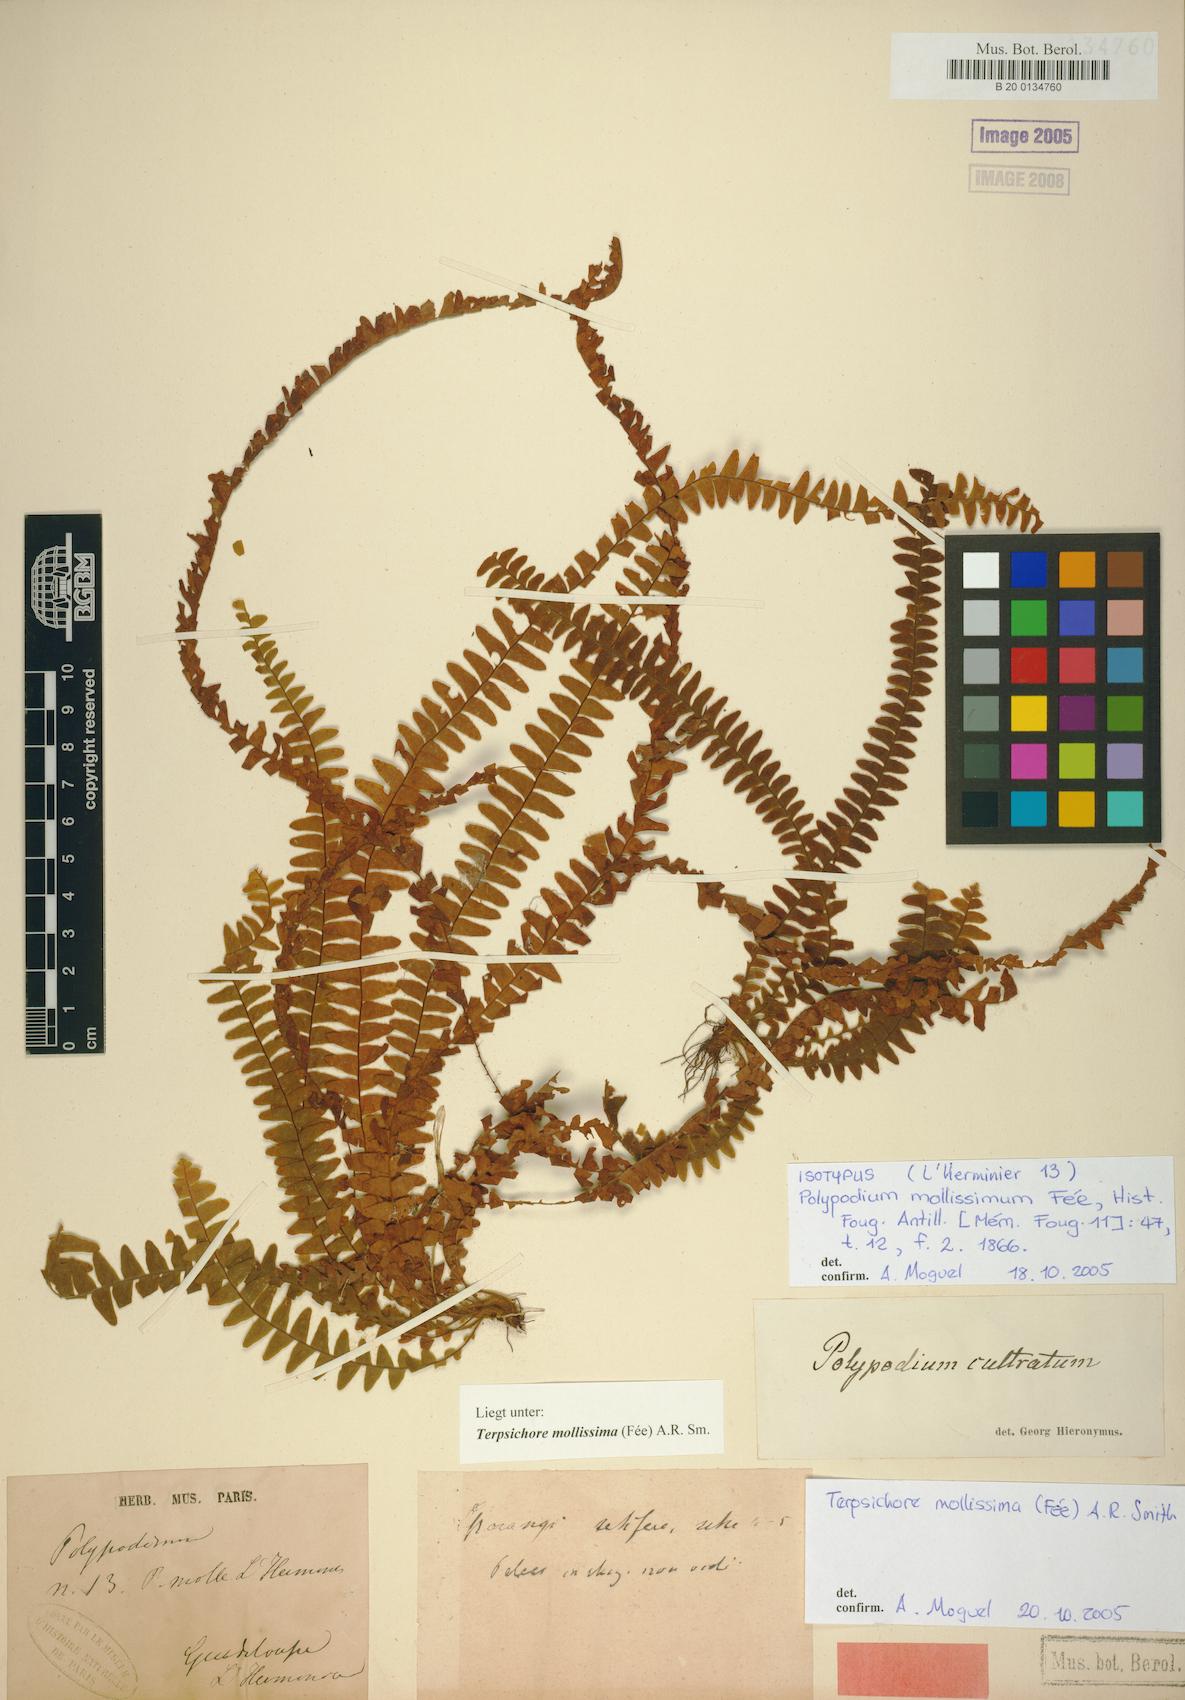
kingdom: Plantae
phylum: Tracheophyta
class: Polypodiopsida
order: Polypodiales
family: Polypodiaceae
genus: Alansmia
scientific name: Alansmia elastica
